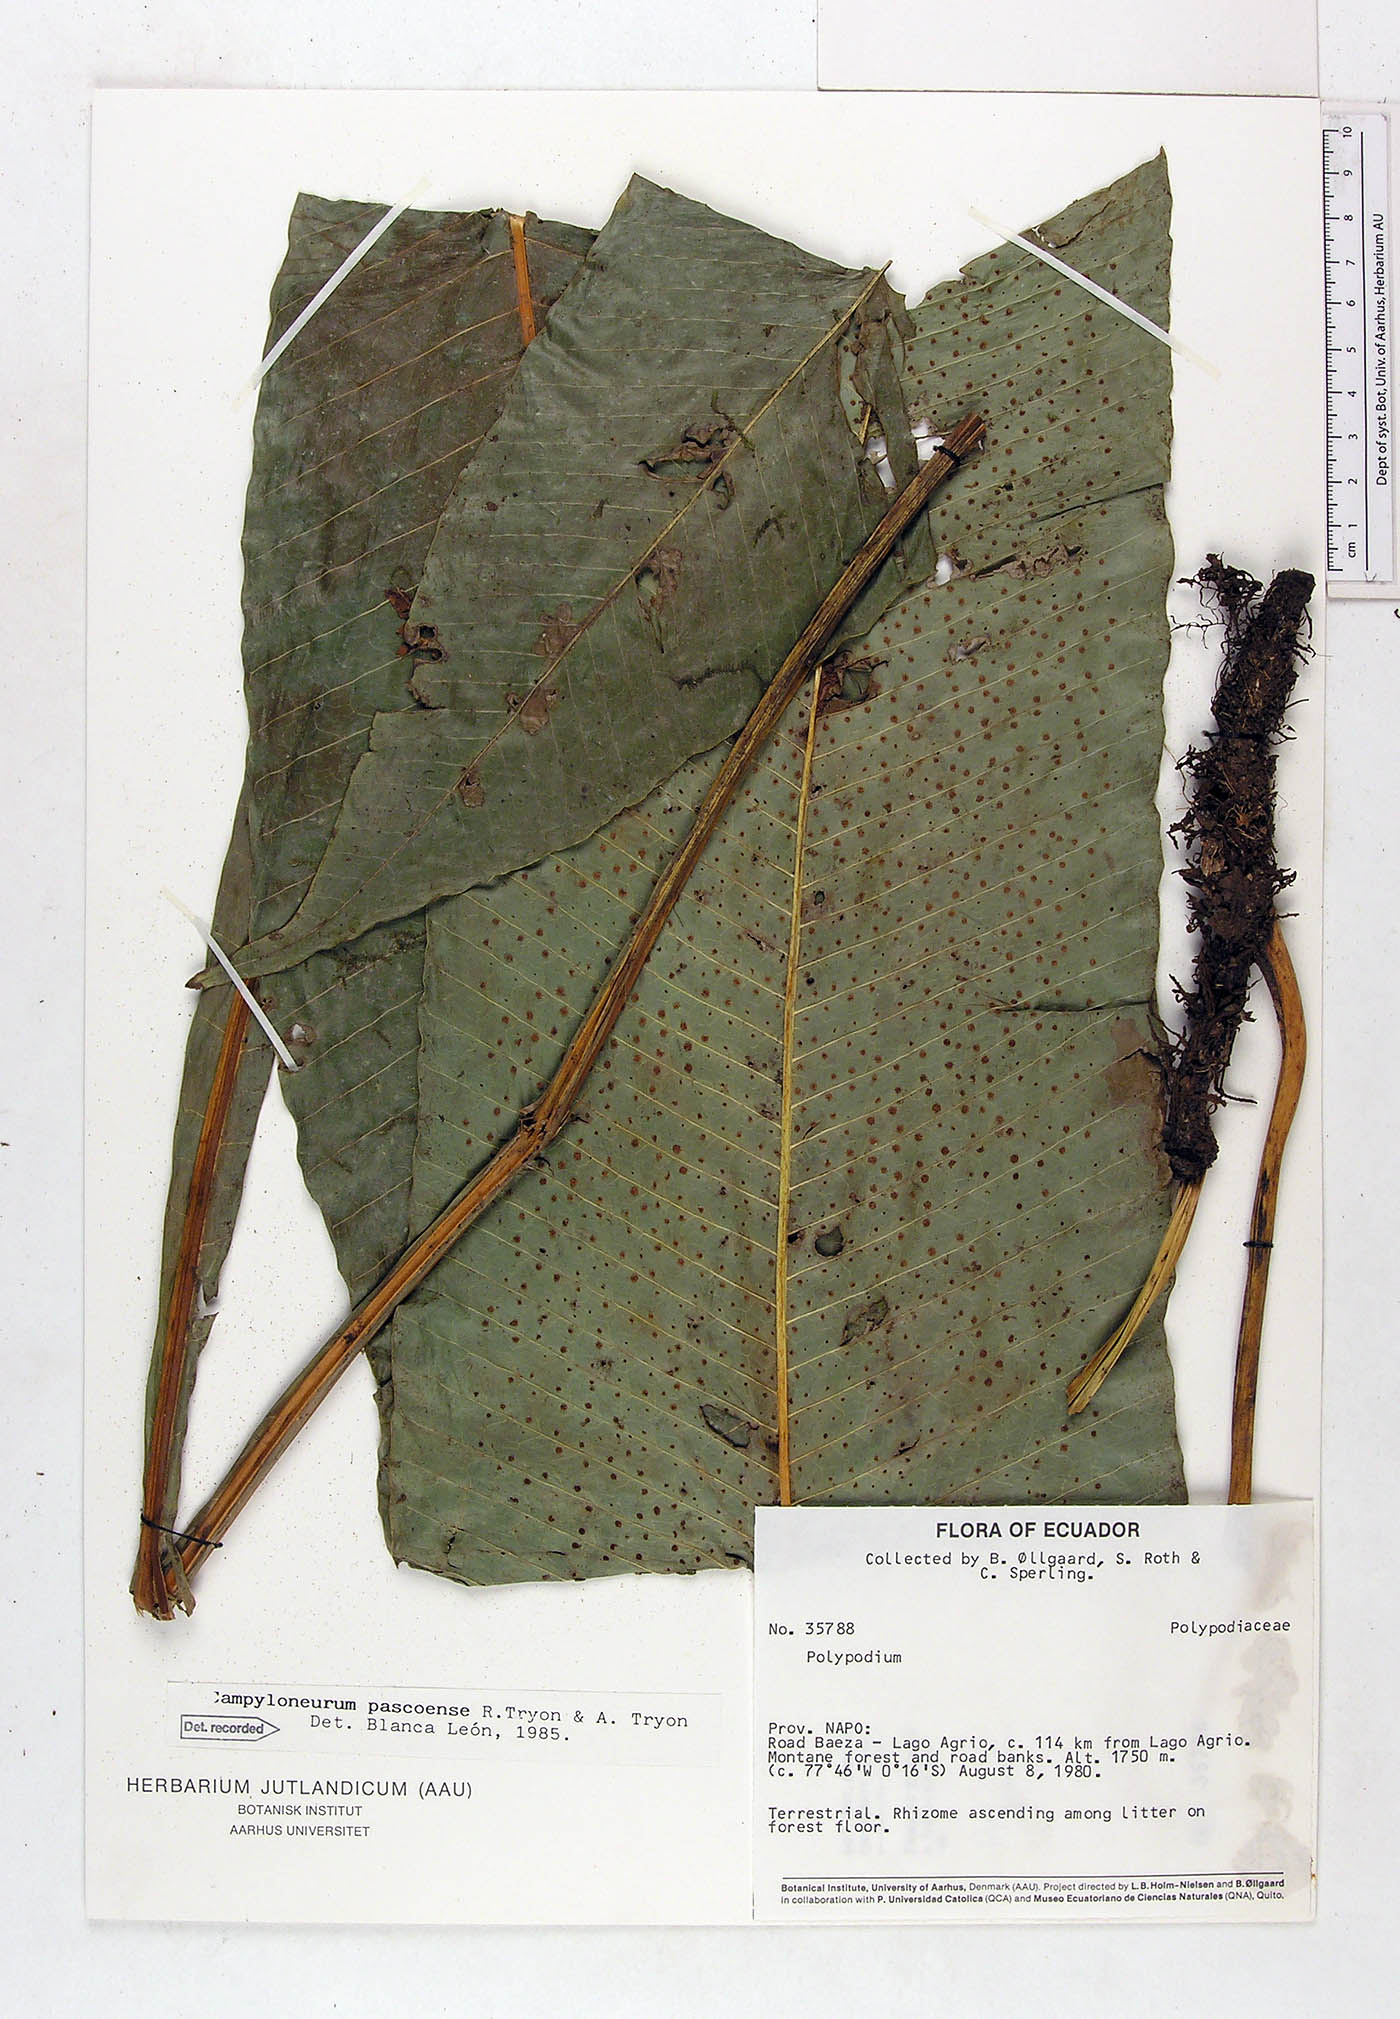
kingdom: Plantae
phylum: Tracheophyta
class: Polypodiopsida
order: Polypodiales
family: Polypodiaceae
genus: Campyloneurum
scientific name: Campyloneurum pascoense
